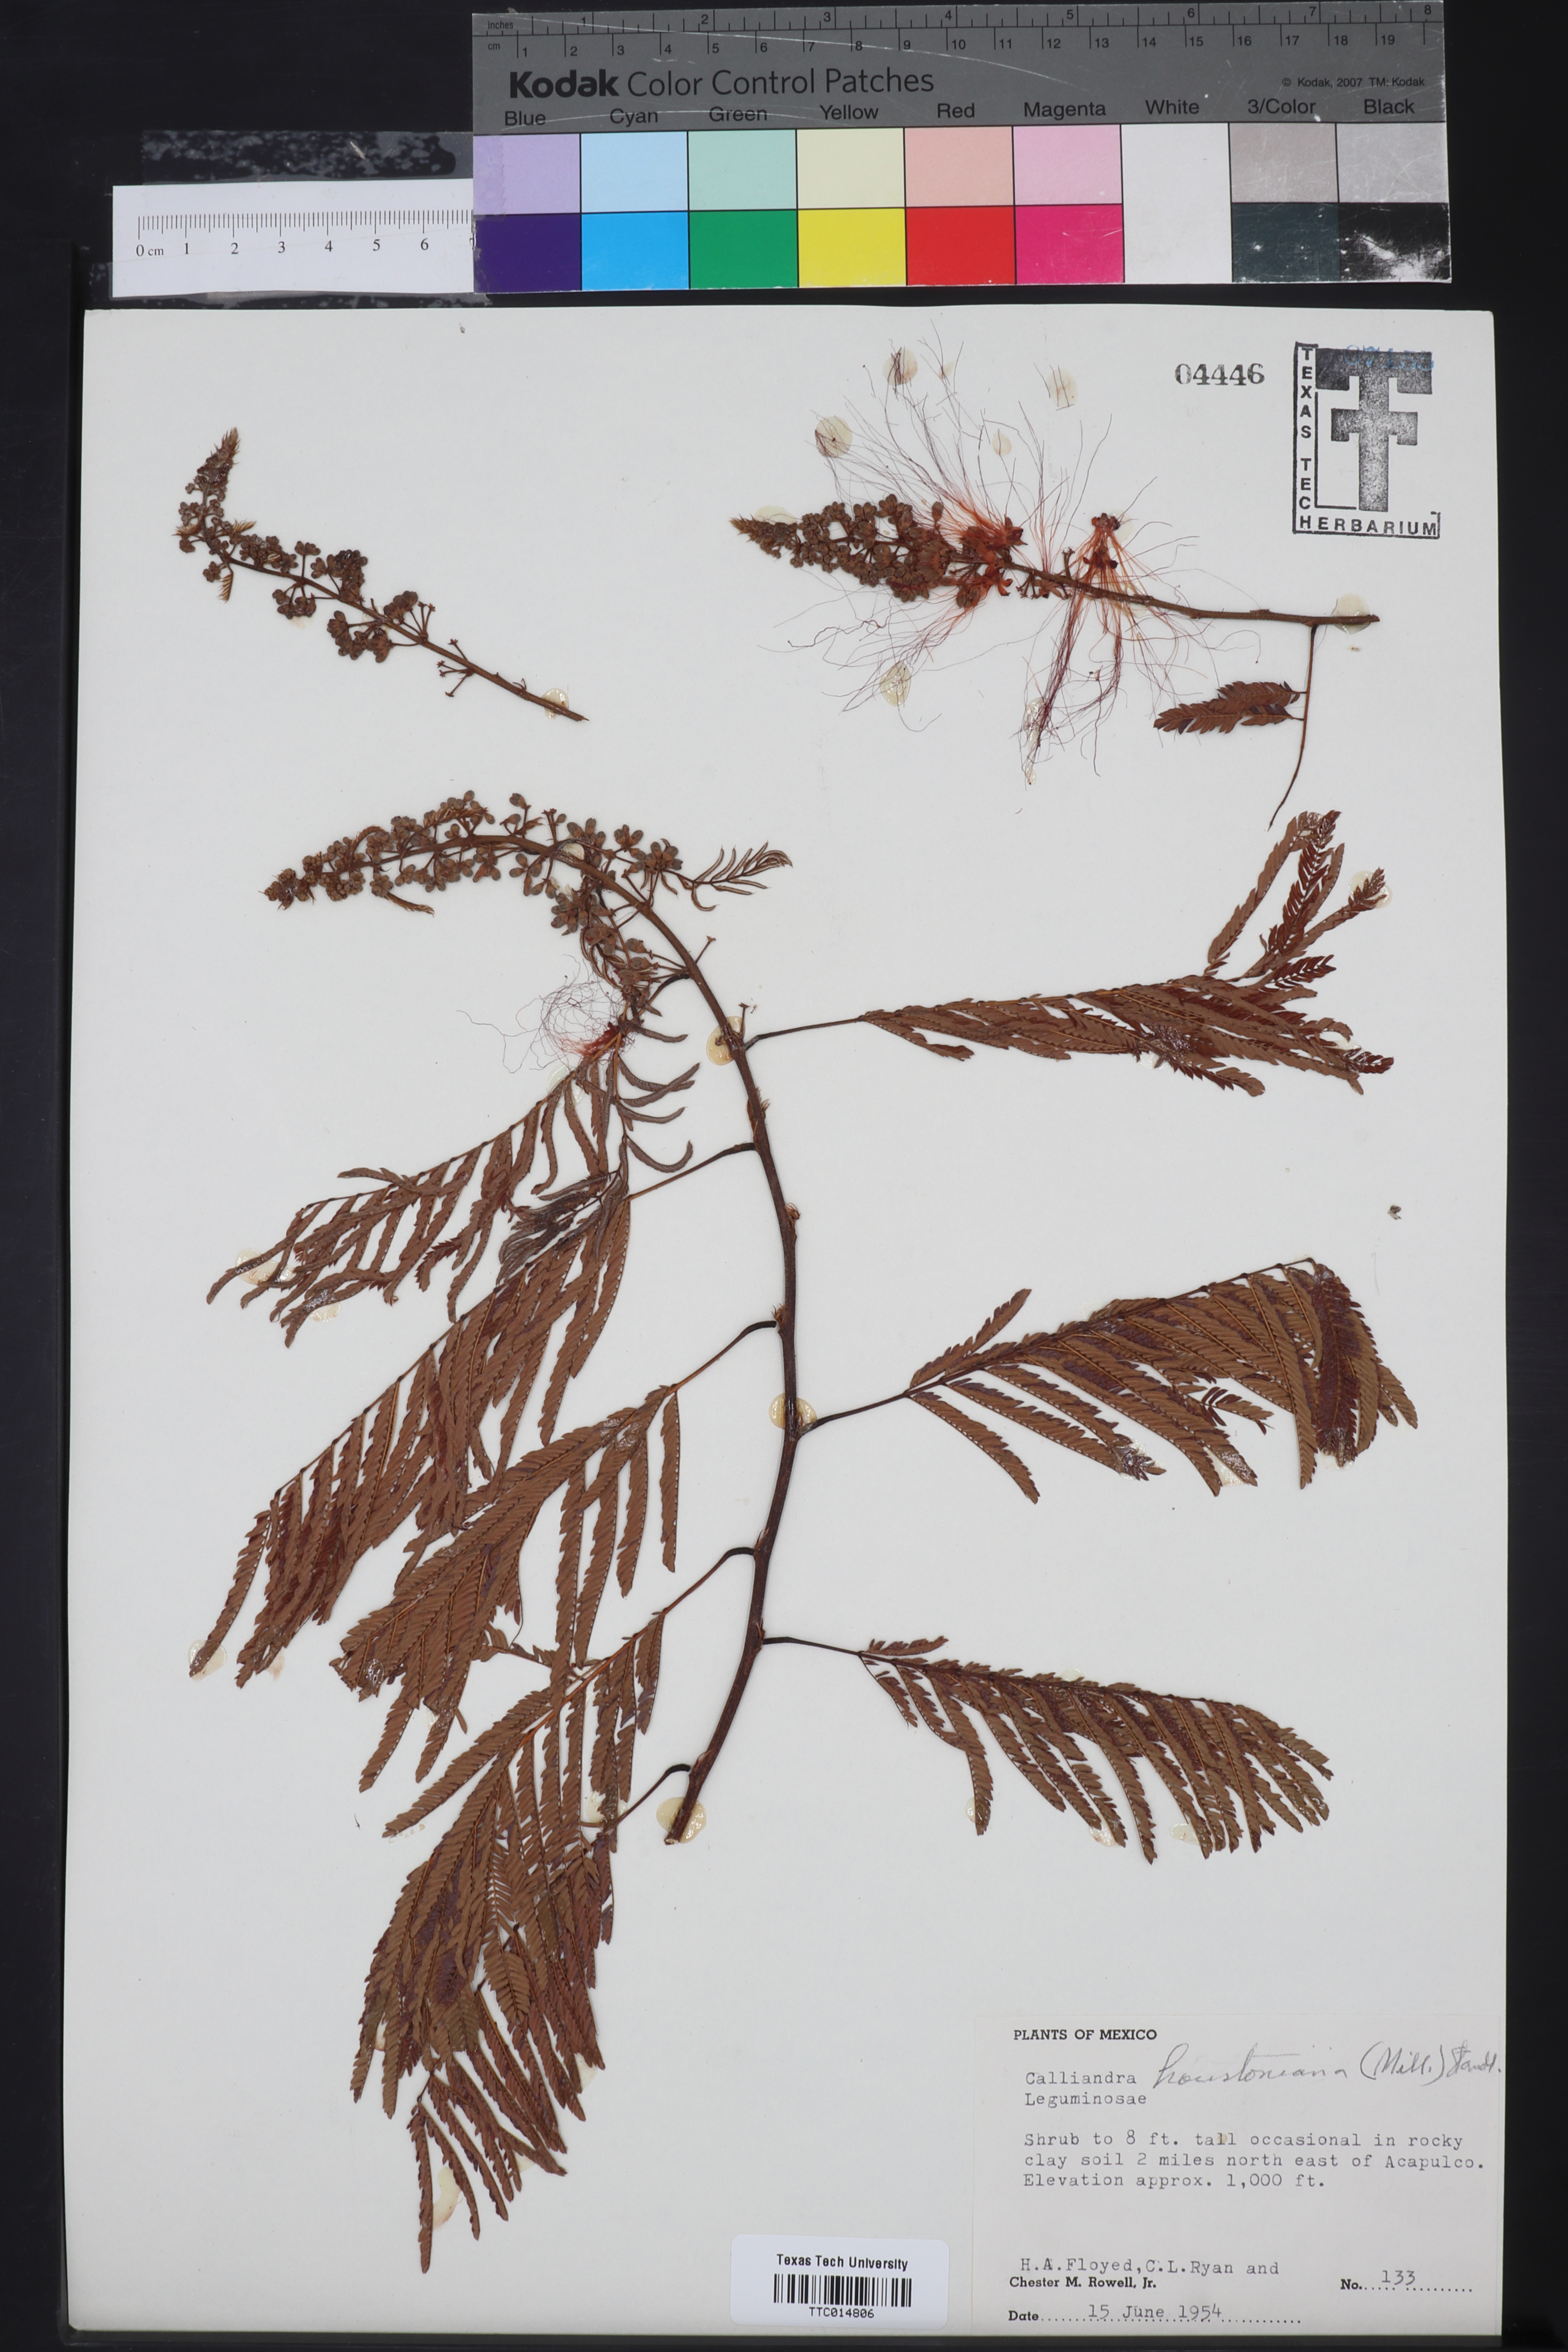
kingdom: Plantae
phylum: Tracheophyta
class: Magnoliopsida
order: Fabales
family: Fabaceae
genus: Calliandra
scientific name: Calliandra houstoniana
